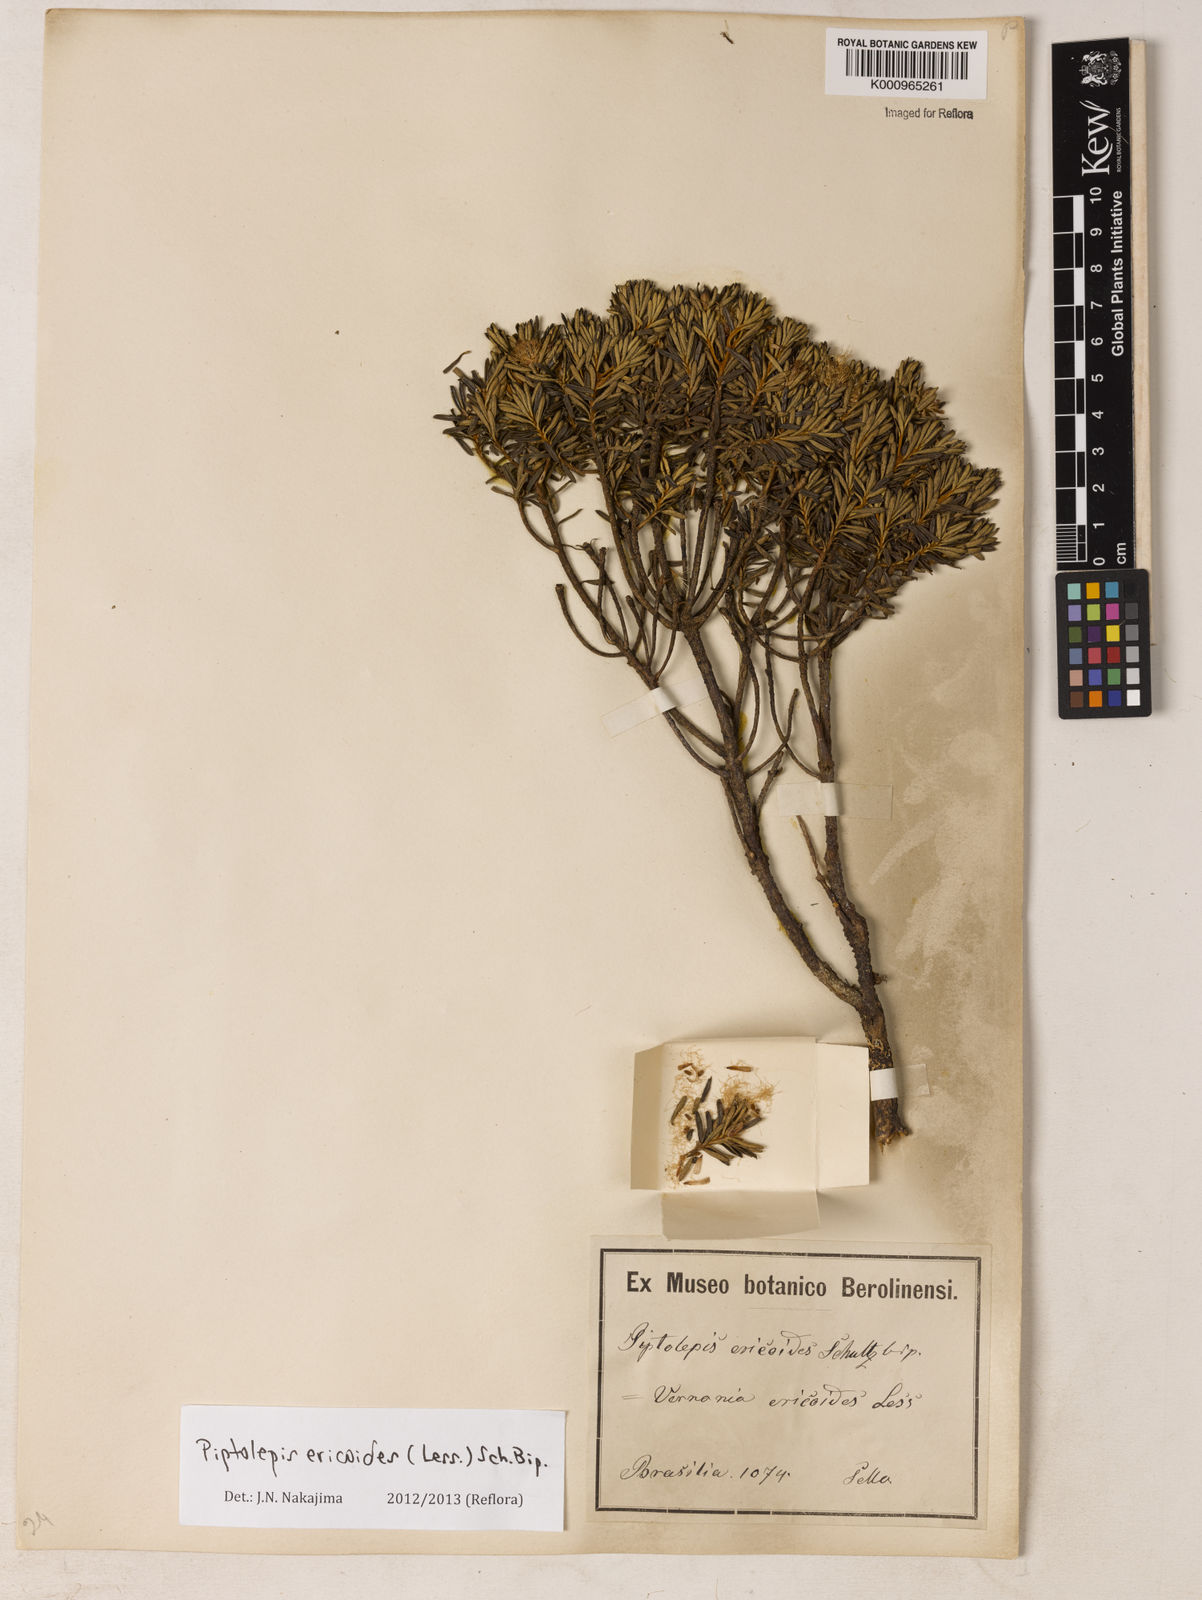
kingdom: Plantae
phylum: Tracheophyta
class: Magnoliopsida
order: Asterales
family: Asteraceae
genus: Piptolepis
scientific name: Piptolepis ericoides
